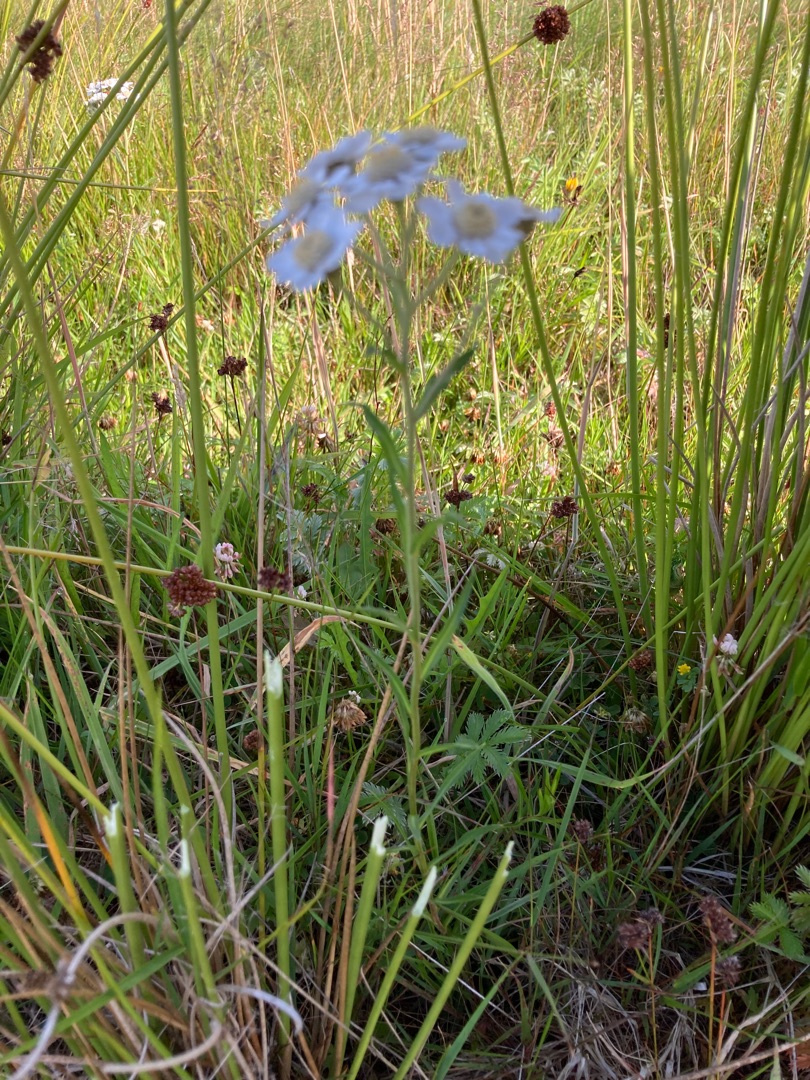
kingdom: Plantae
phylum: Tracheophyta
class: Magnoliopsida
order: Asterales
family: Asteraceae
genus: Achillea
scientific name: Achillea ptarmica
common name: Nyse-røllike
